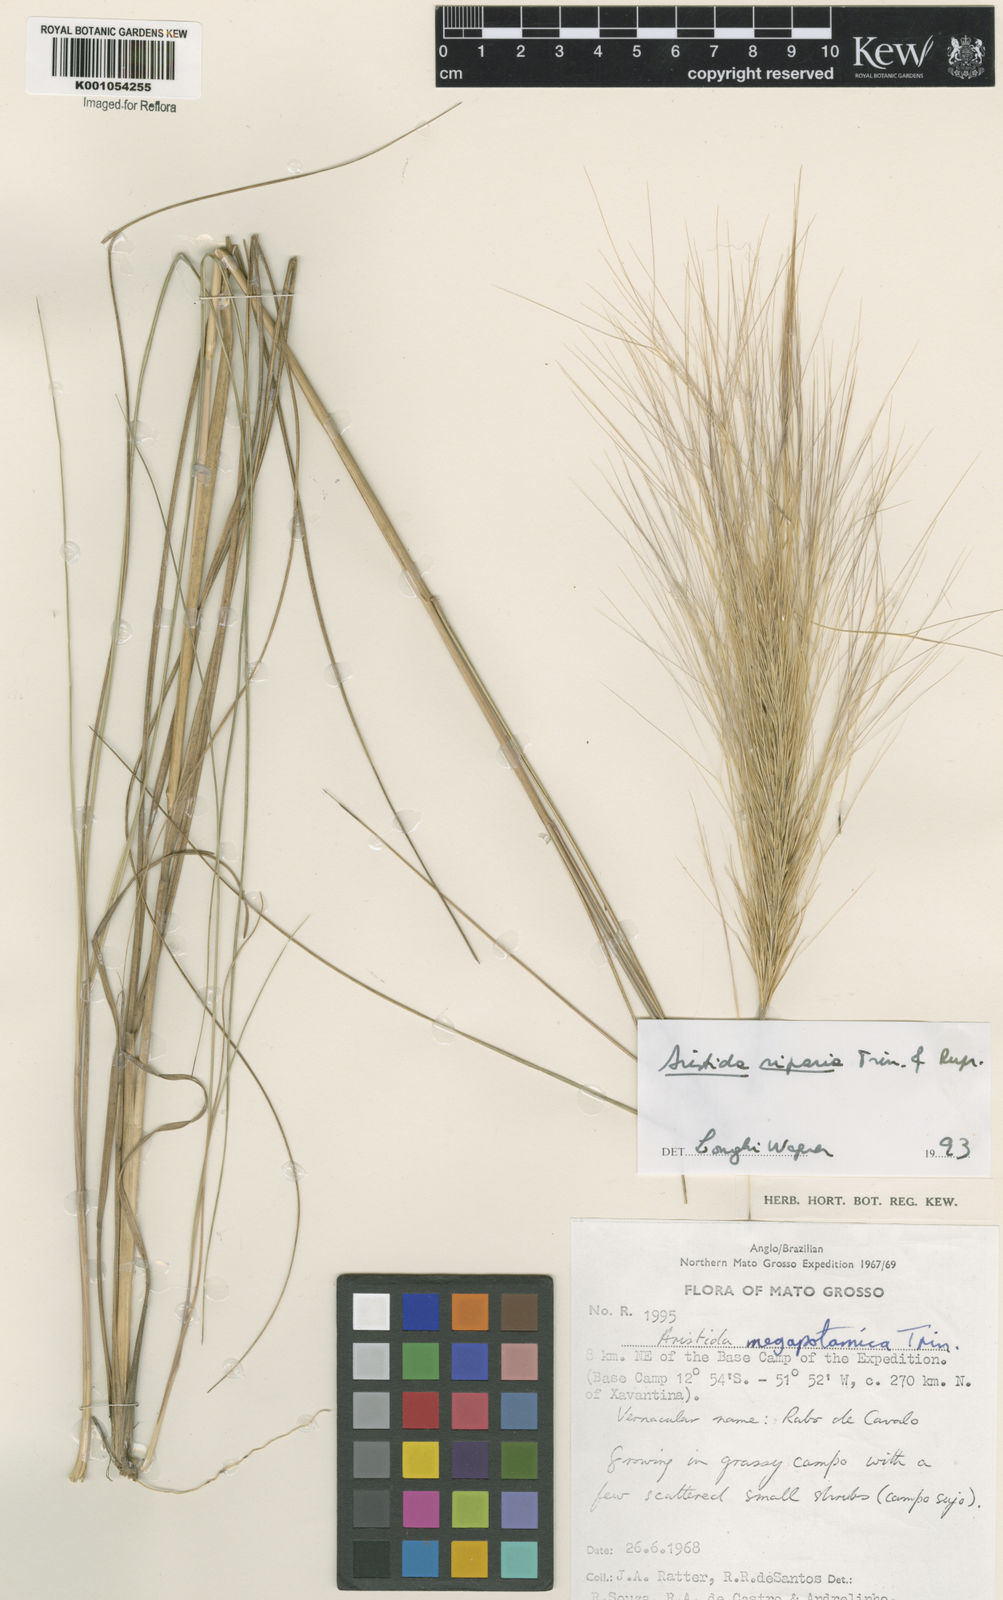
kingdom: Plantae
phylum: Tracheophyta
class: Liliopsida
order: Poales
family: Poaceae
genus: Aristida
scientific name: Aristida riparia
